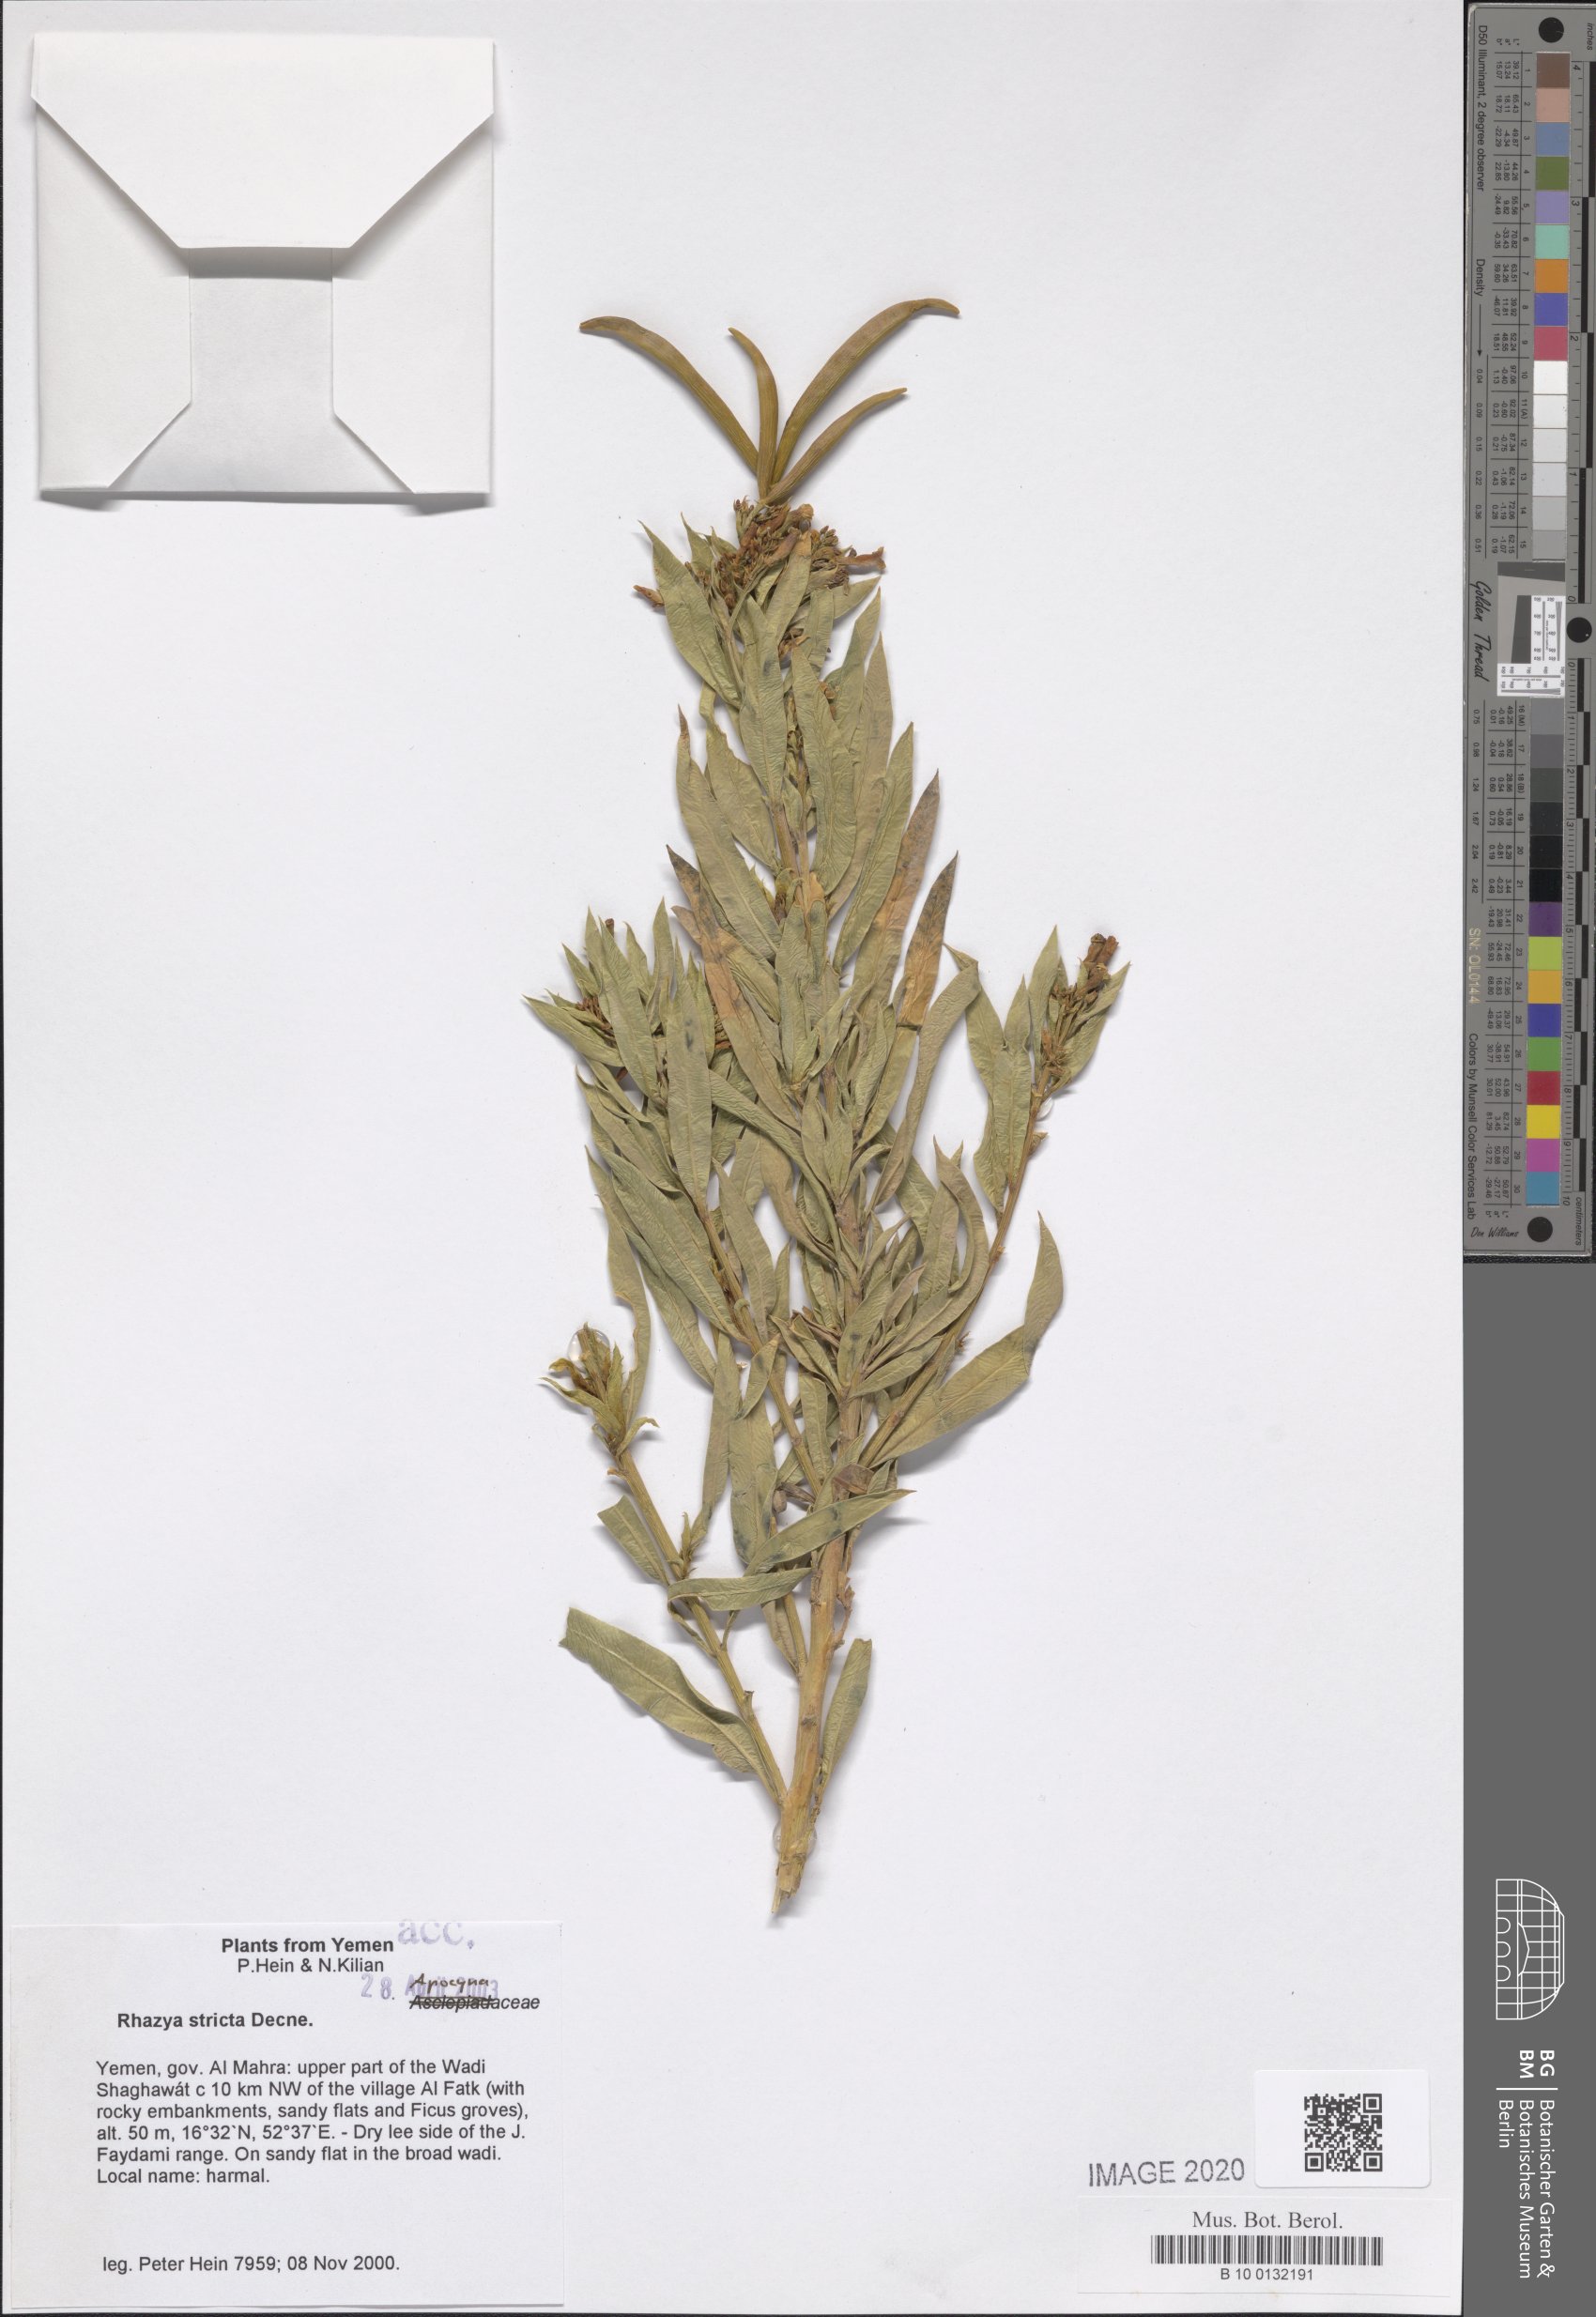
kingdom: Plantae
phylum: Tracheophyta
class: Magnoliopsida
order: Gentianales
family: Apocynaceae
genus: Rhazya
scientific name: Rhazya stricta
